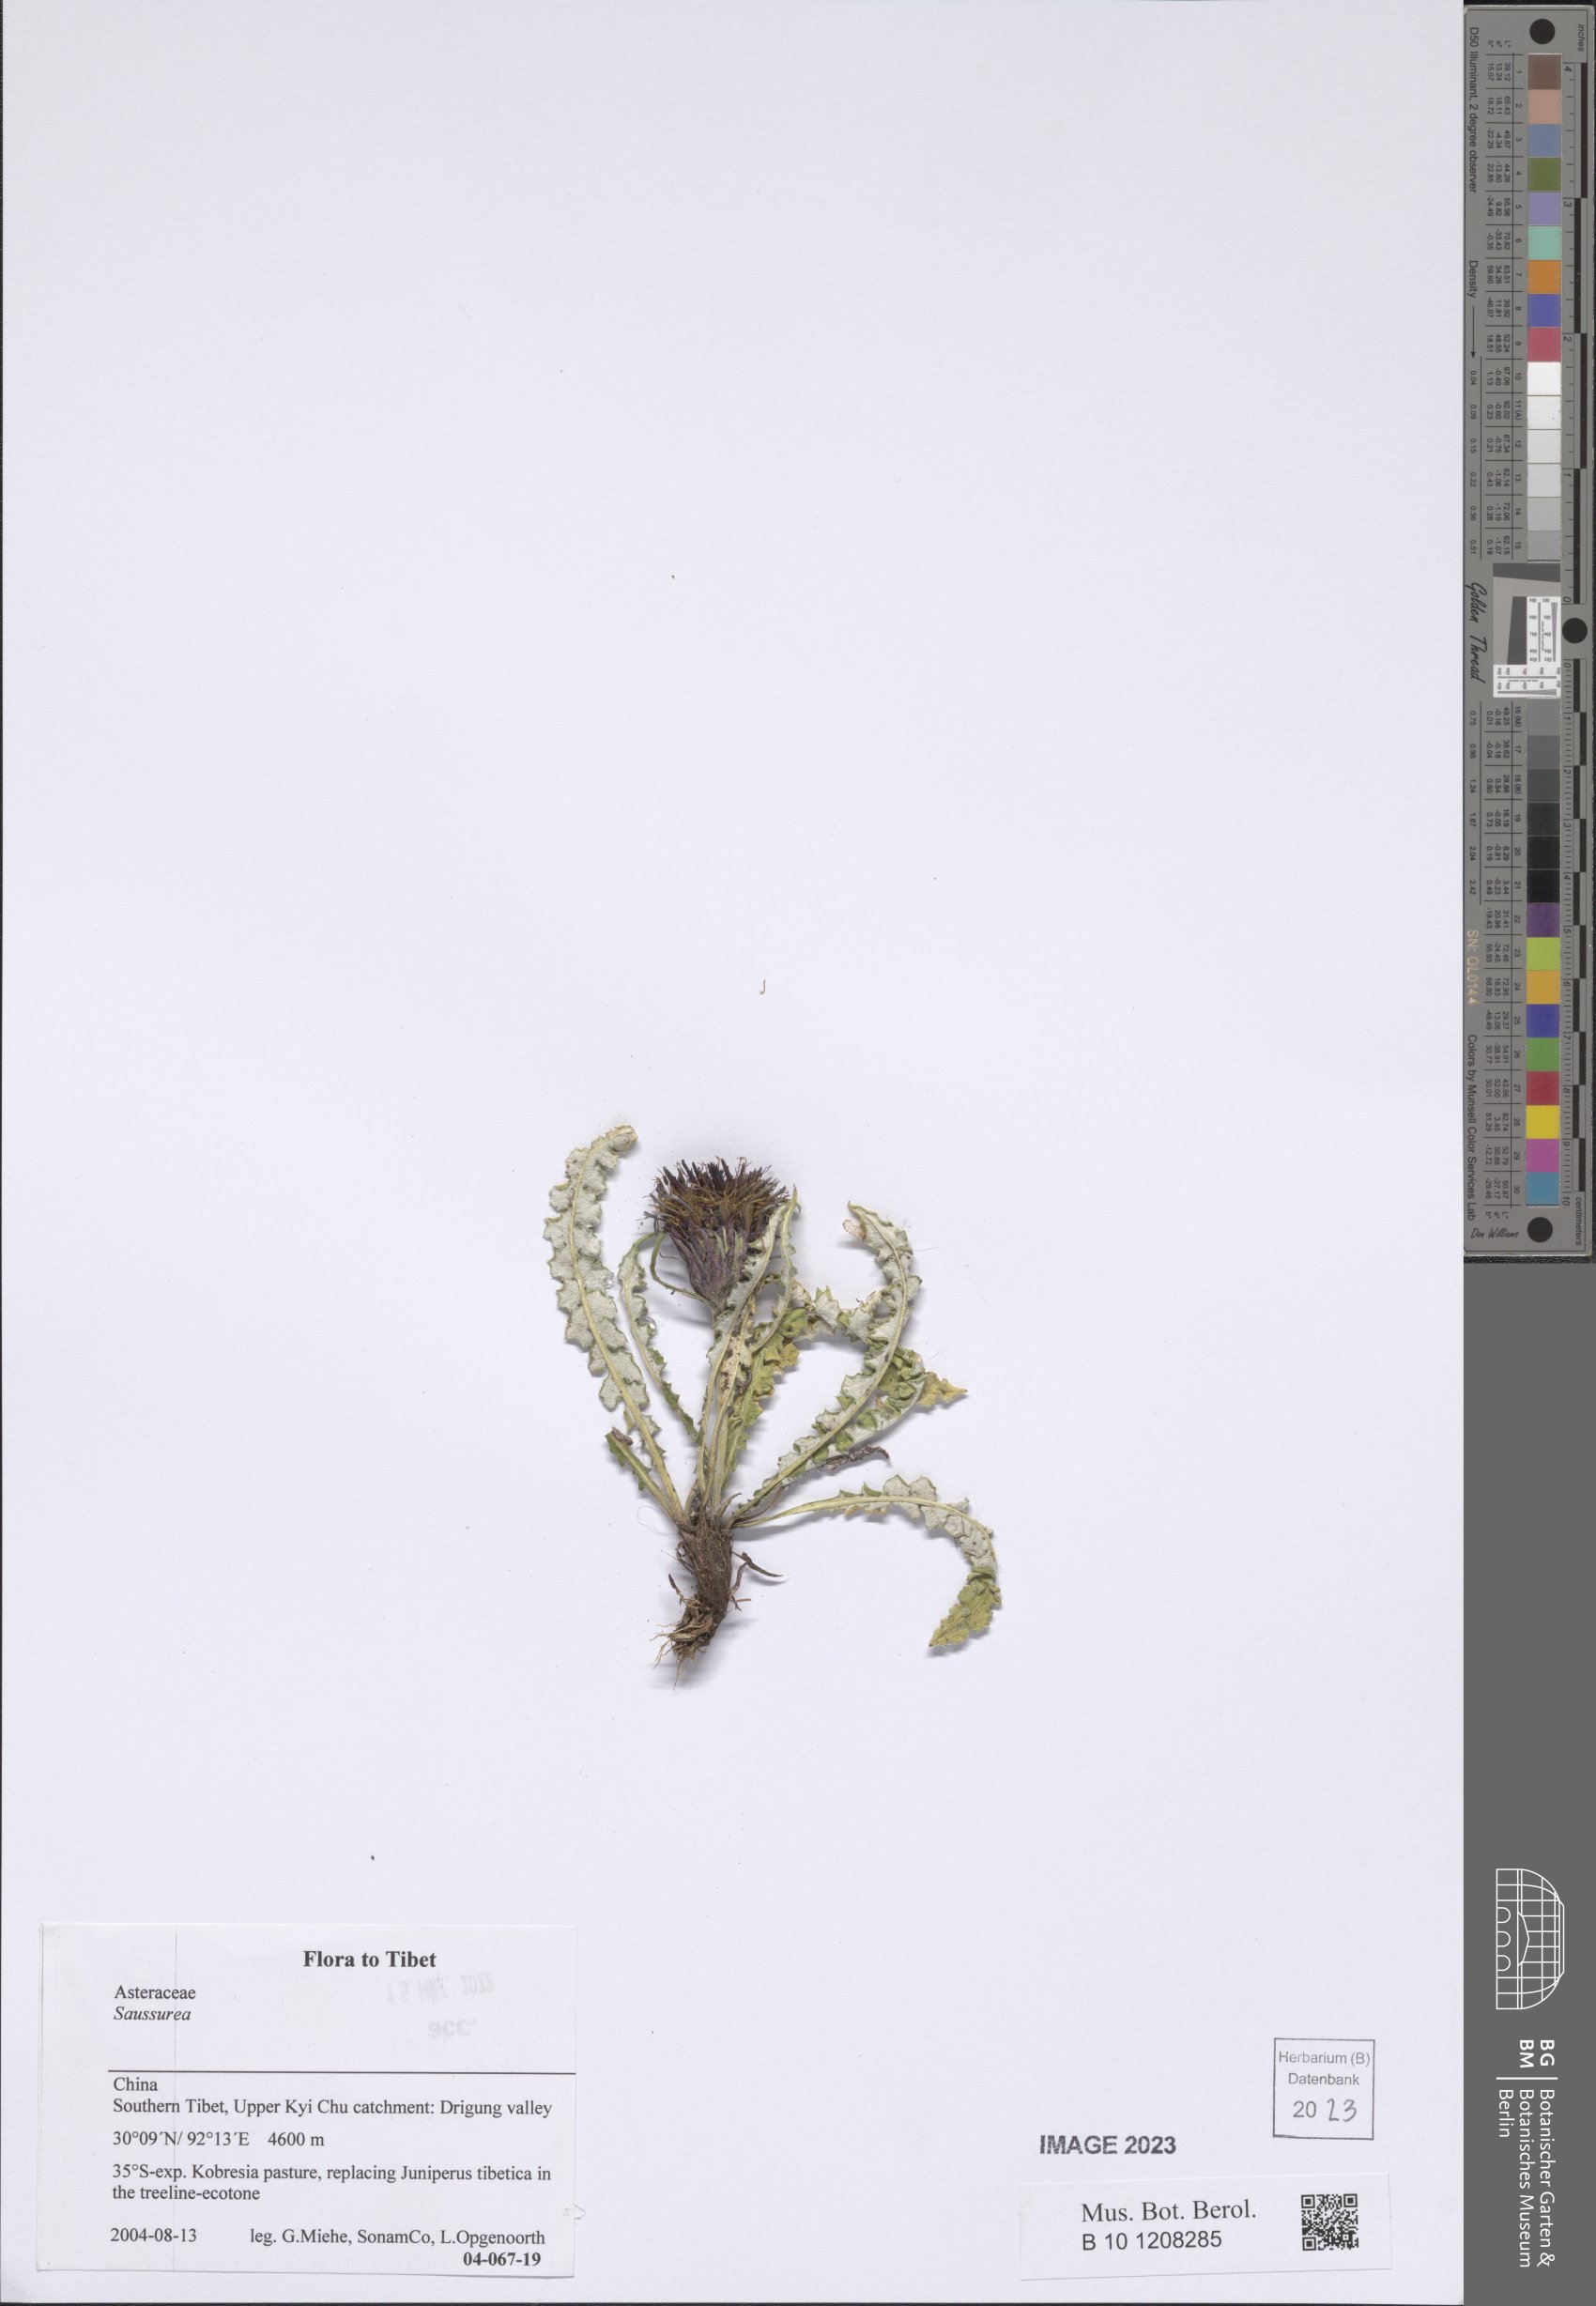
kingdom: Plantae
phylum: Tracheophyta
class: Magnoliopsida
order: Asterales
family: Asteraceae
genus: Saussurea
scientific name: Saussurea
